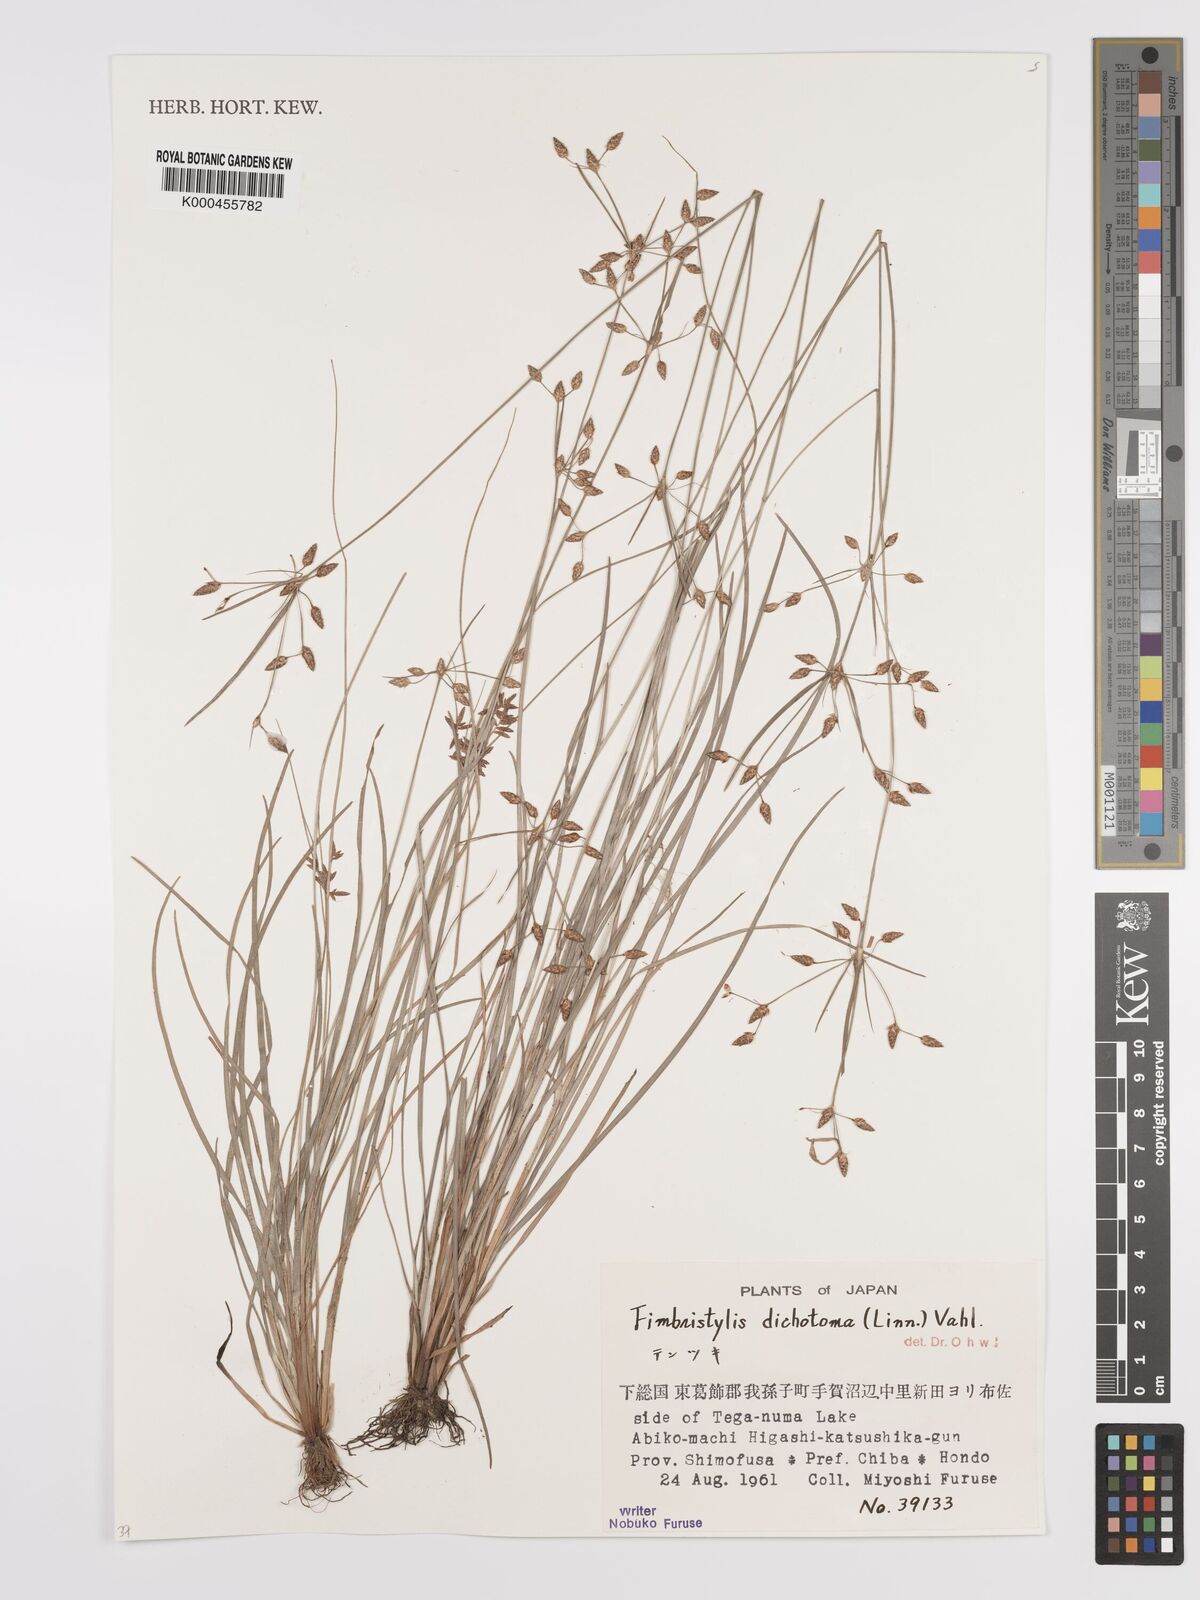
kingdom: Plantae
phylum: Tracheophyta
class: Liliopsida
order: Poales
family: Cyperaceae
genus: Fimbristylis
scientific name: Fimbristylis dichotoma
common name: Forked fimbry
